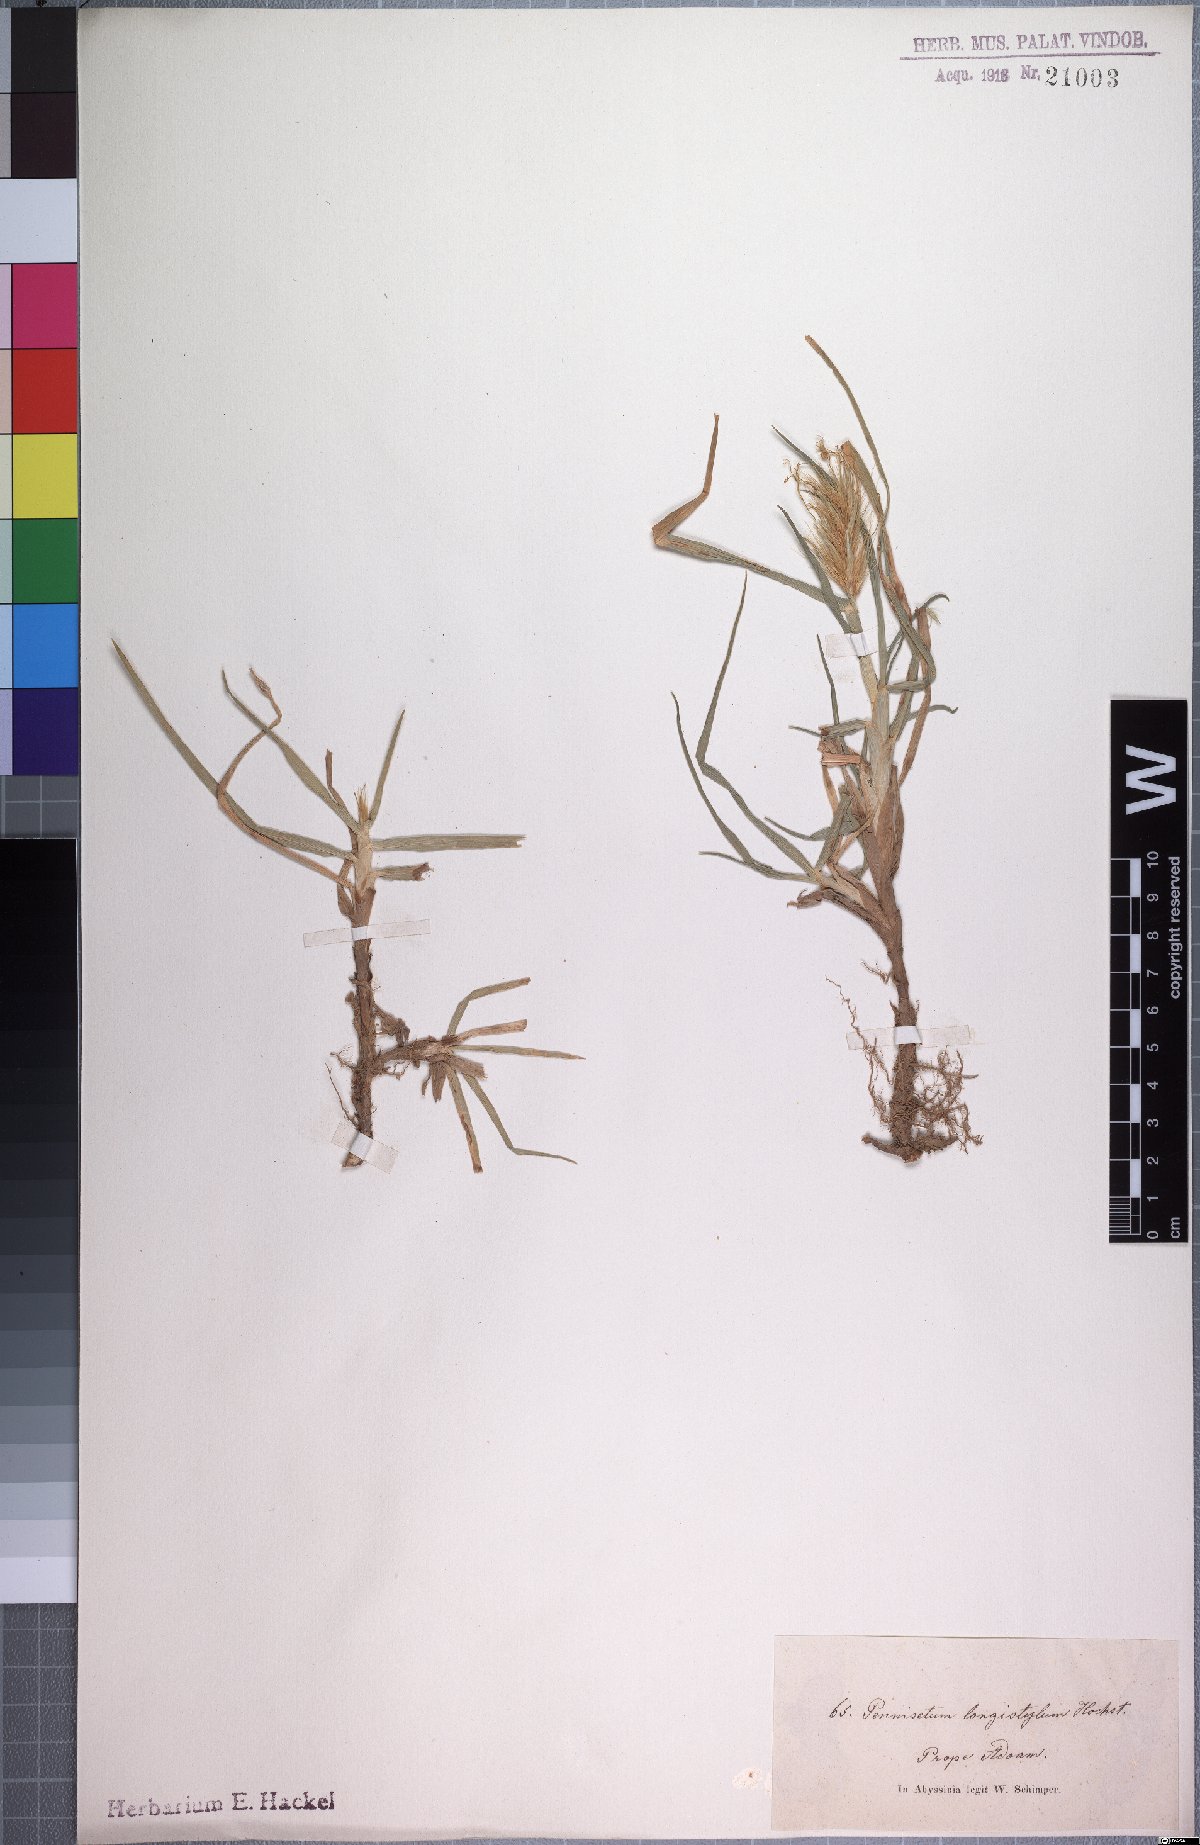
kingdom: Plantae
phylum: Tracheophyta
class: Liliopsida
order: Poales
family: Poaceae
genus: Cenchrus
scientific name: Cenchrus longistylus
